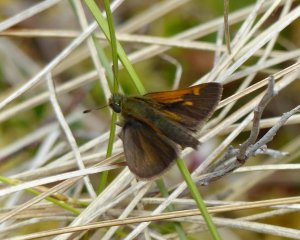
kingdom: Animalia
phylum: Arthropoda
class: Insecta
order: Lepidoptera
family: Hesperiidae
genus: Polites
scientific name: Polites themistocles
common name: Tawny-edged Skipper
